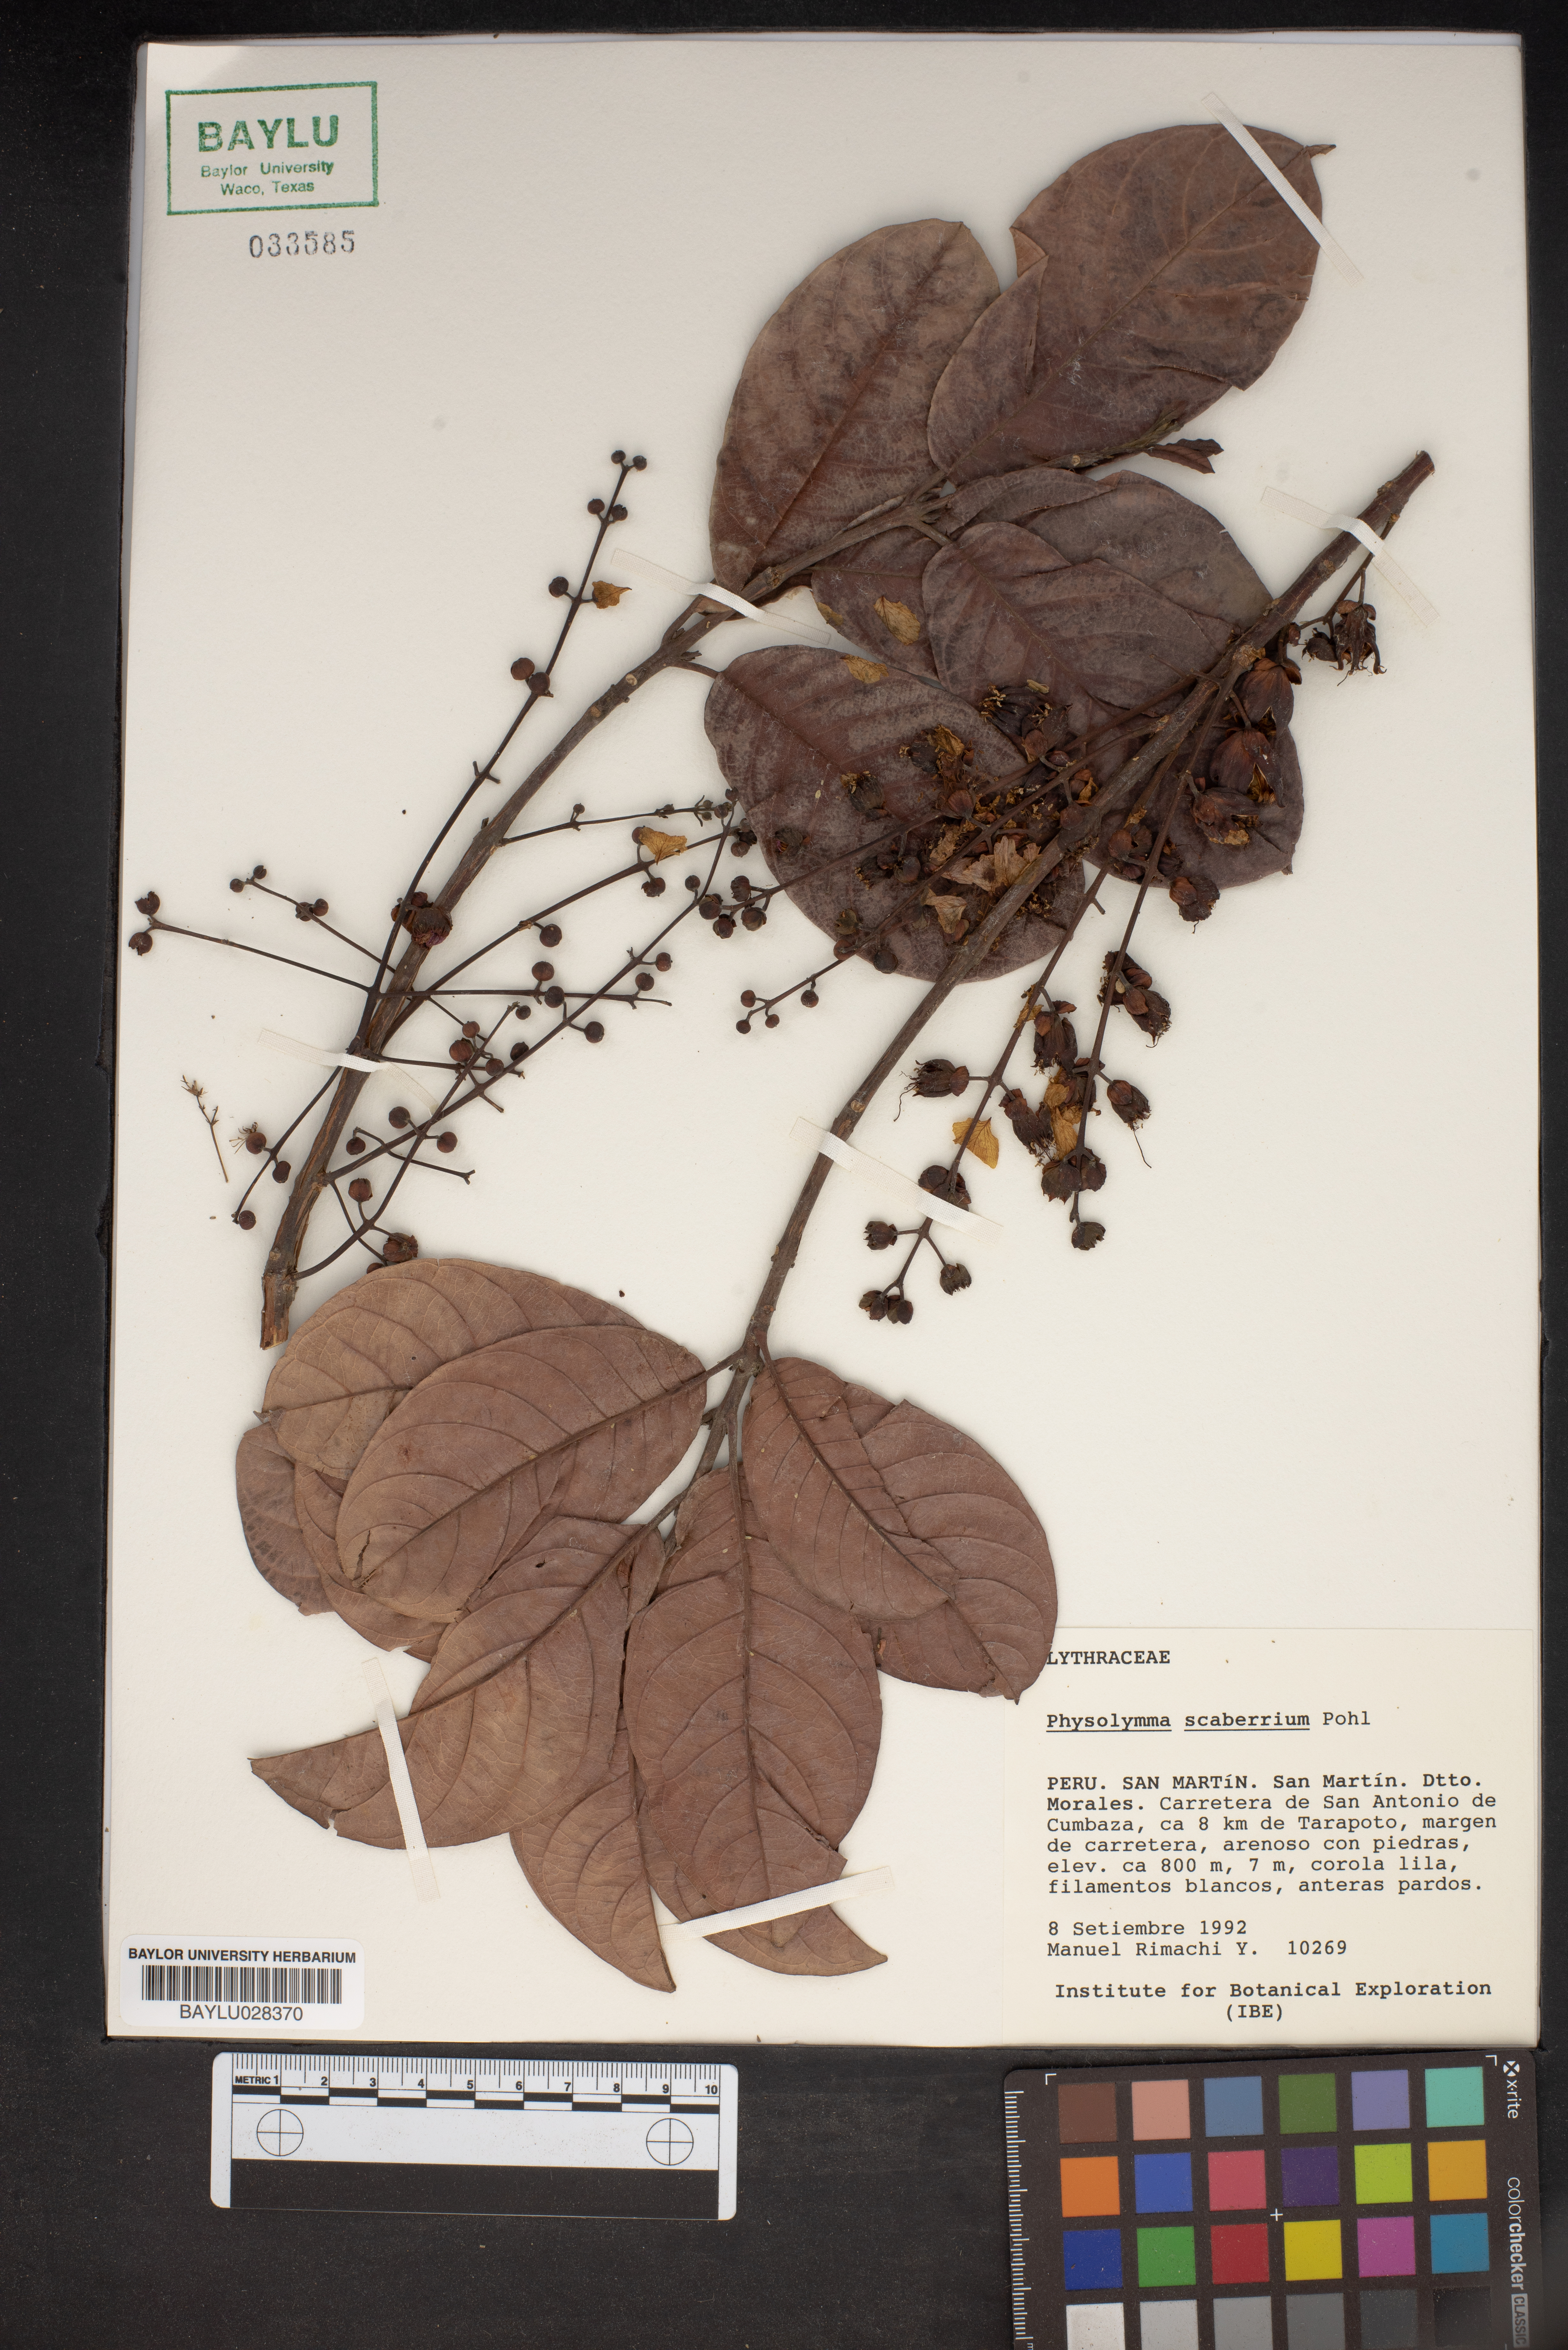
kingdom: Plantae
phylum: Tracheophyta
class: Magnoliopsida
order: Myrtales
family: Lythraceae
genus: Physocalymma
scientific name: Physocalymma scaberrimum
